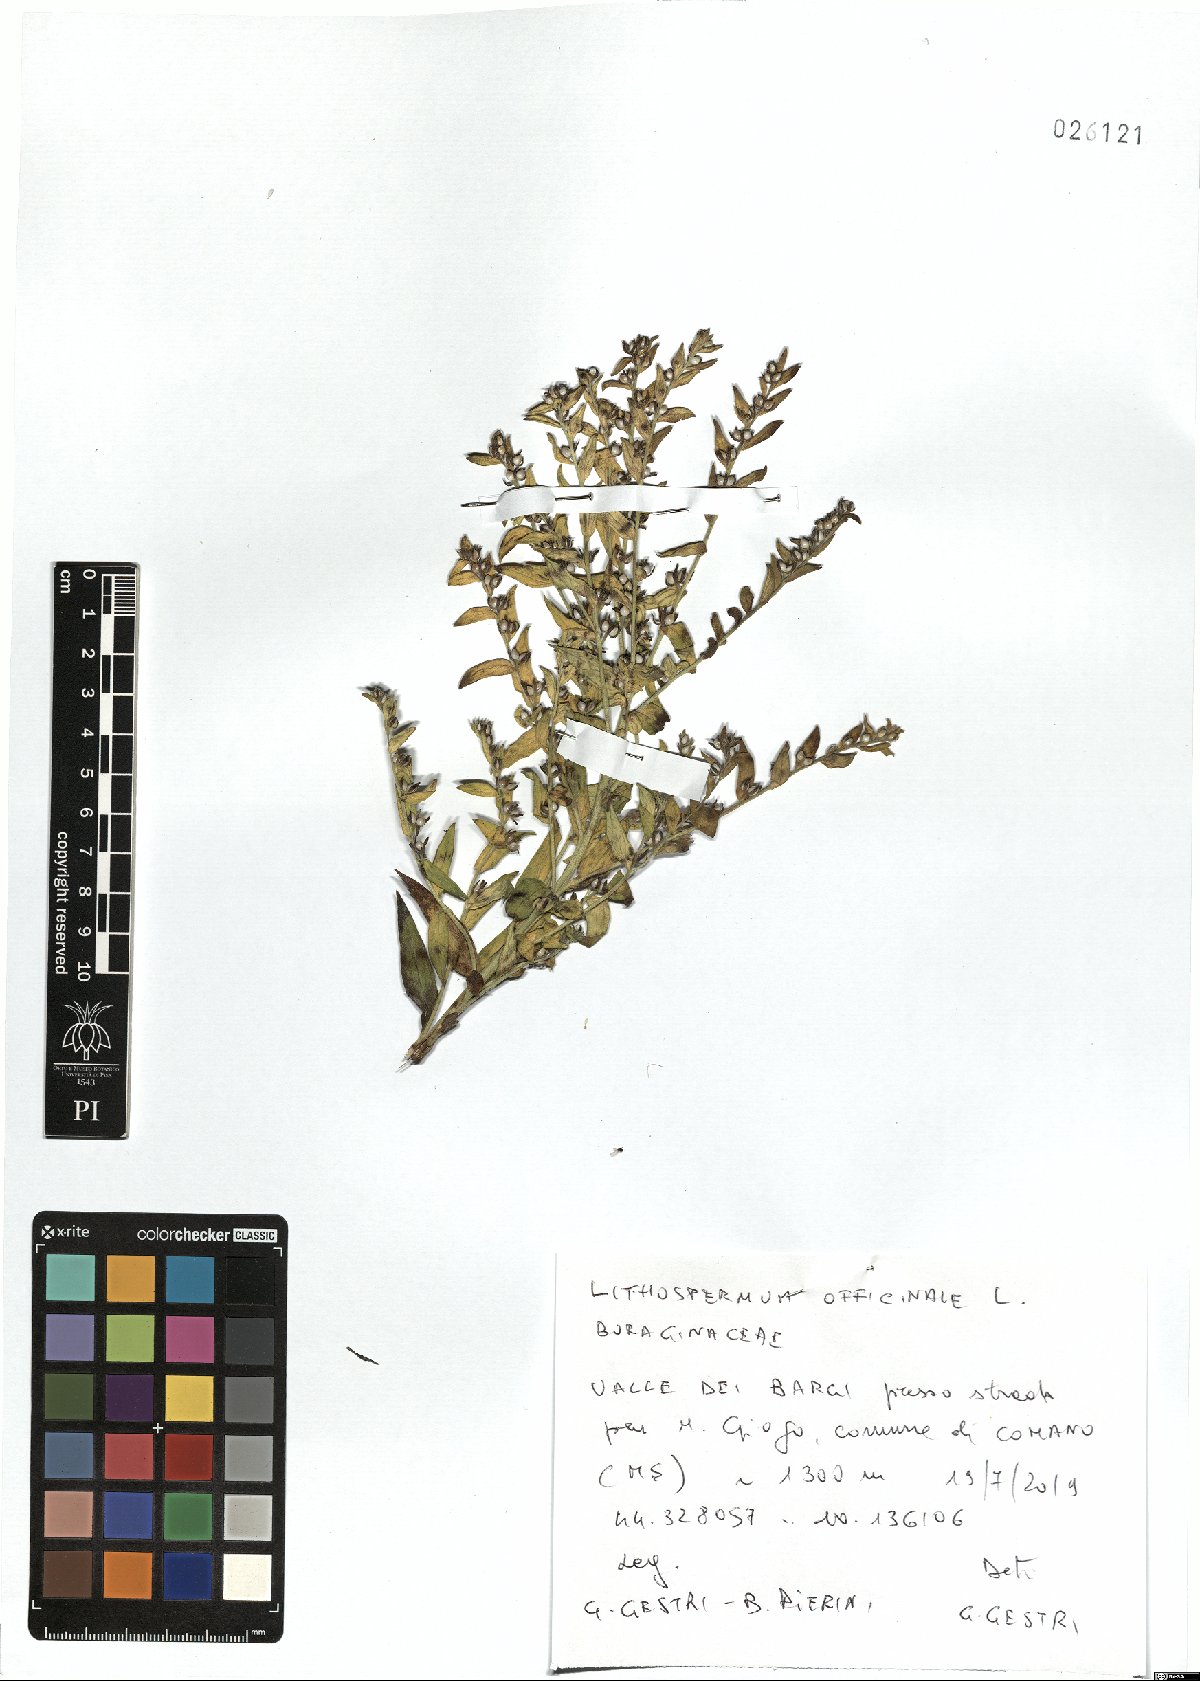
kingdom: Plantae
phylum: Tracheophyta
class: Magnoliopsida
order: Boraginales
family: Boraginaceae
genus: Lithospermum
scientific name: Lithospermum officinale
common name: Common gromwell
